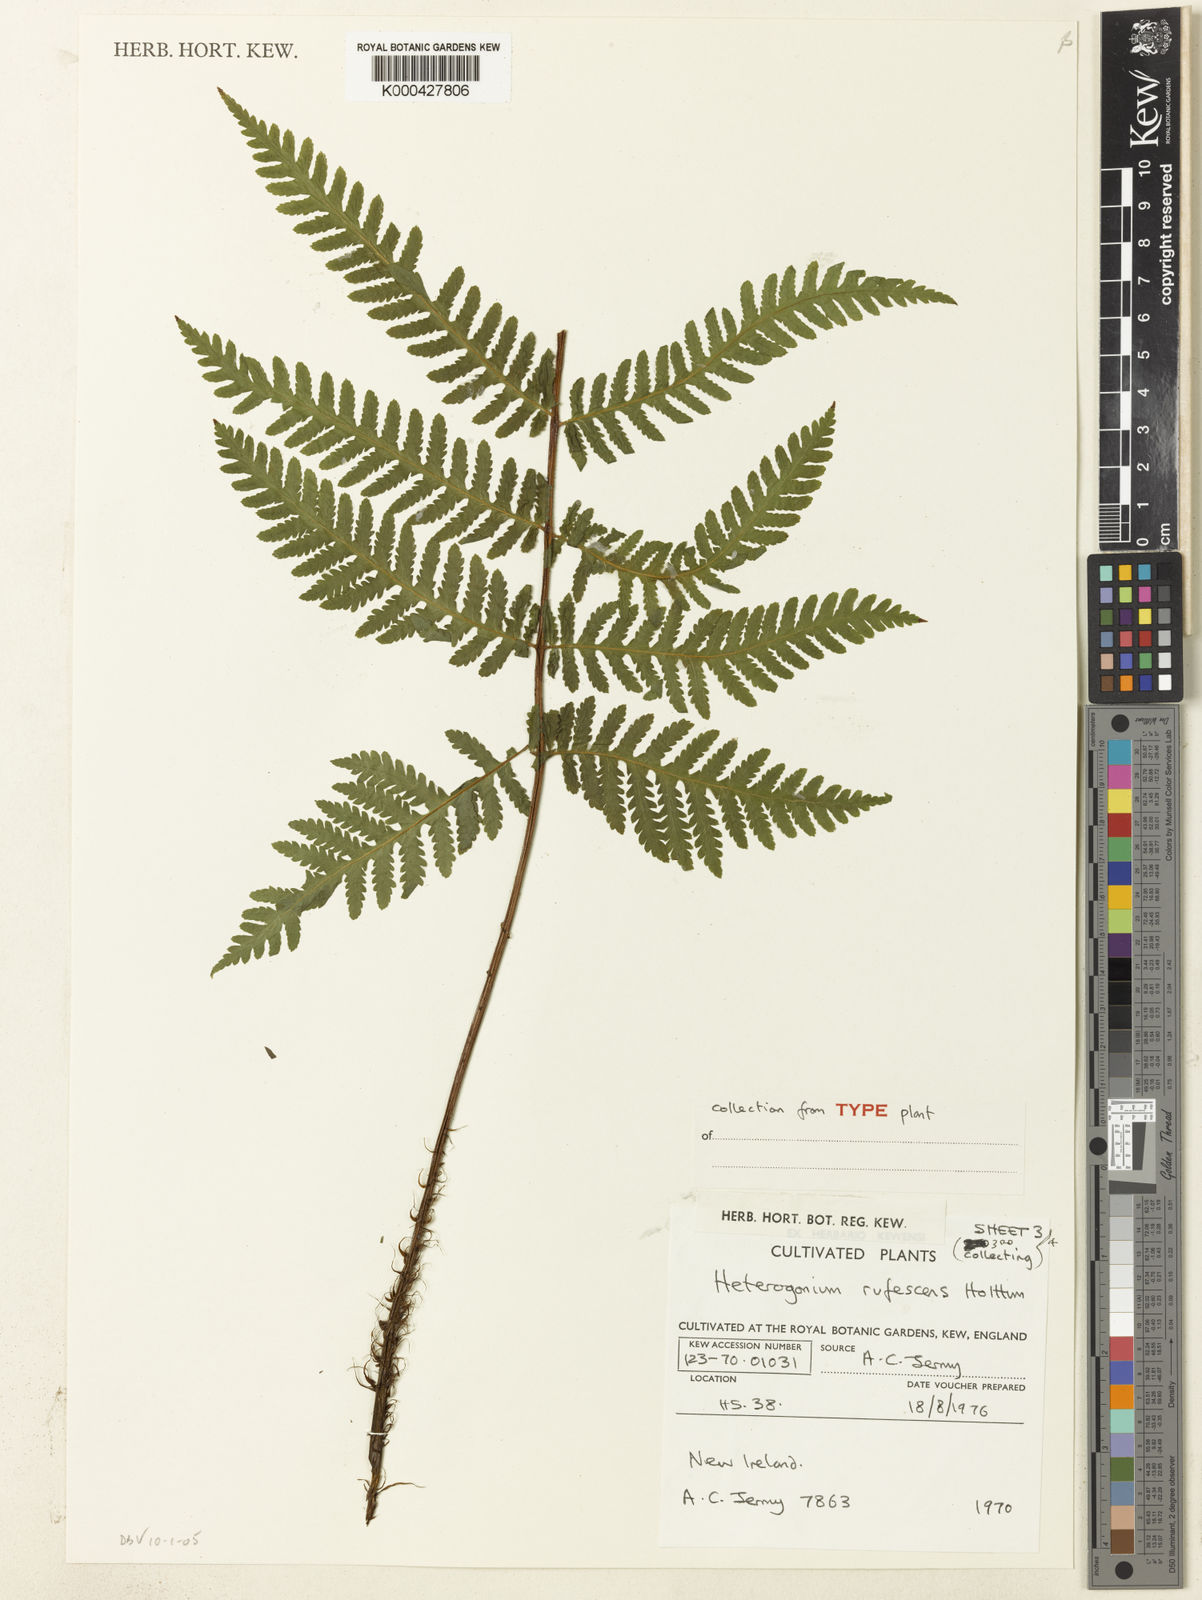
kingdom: Plantae
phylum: Tracheophyta
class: Polypodiopsida
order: Polypodiales
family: Tectariaceae
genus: Tectaria
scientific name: Tectaria jermyi
